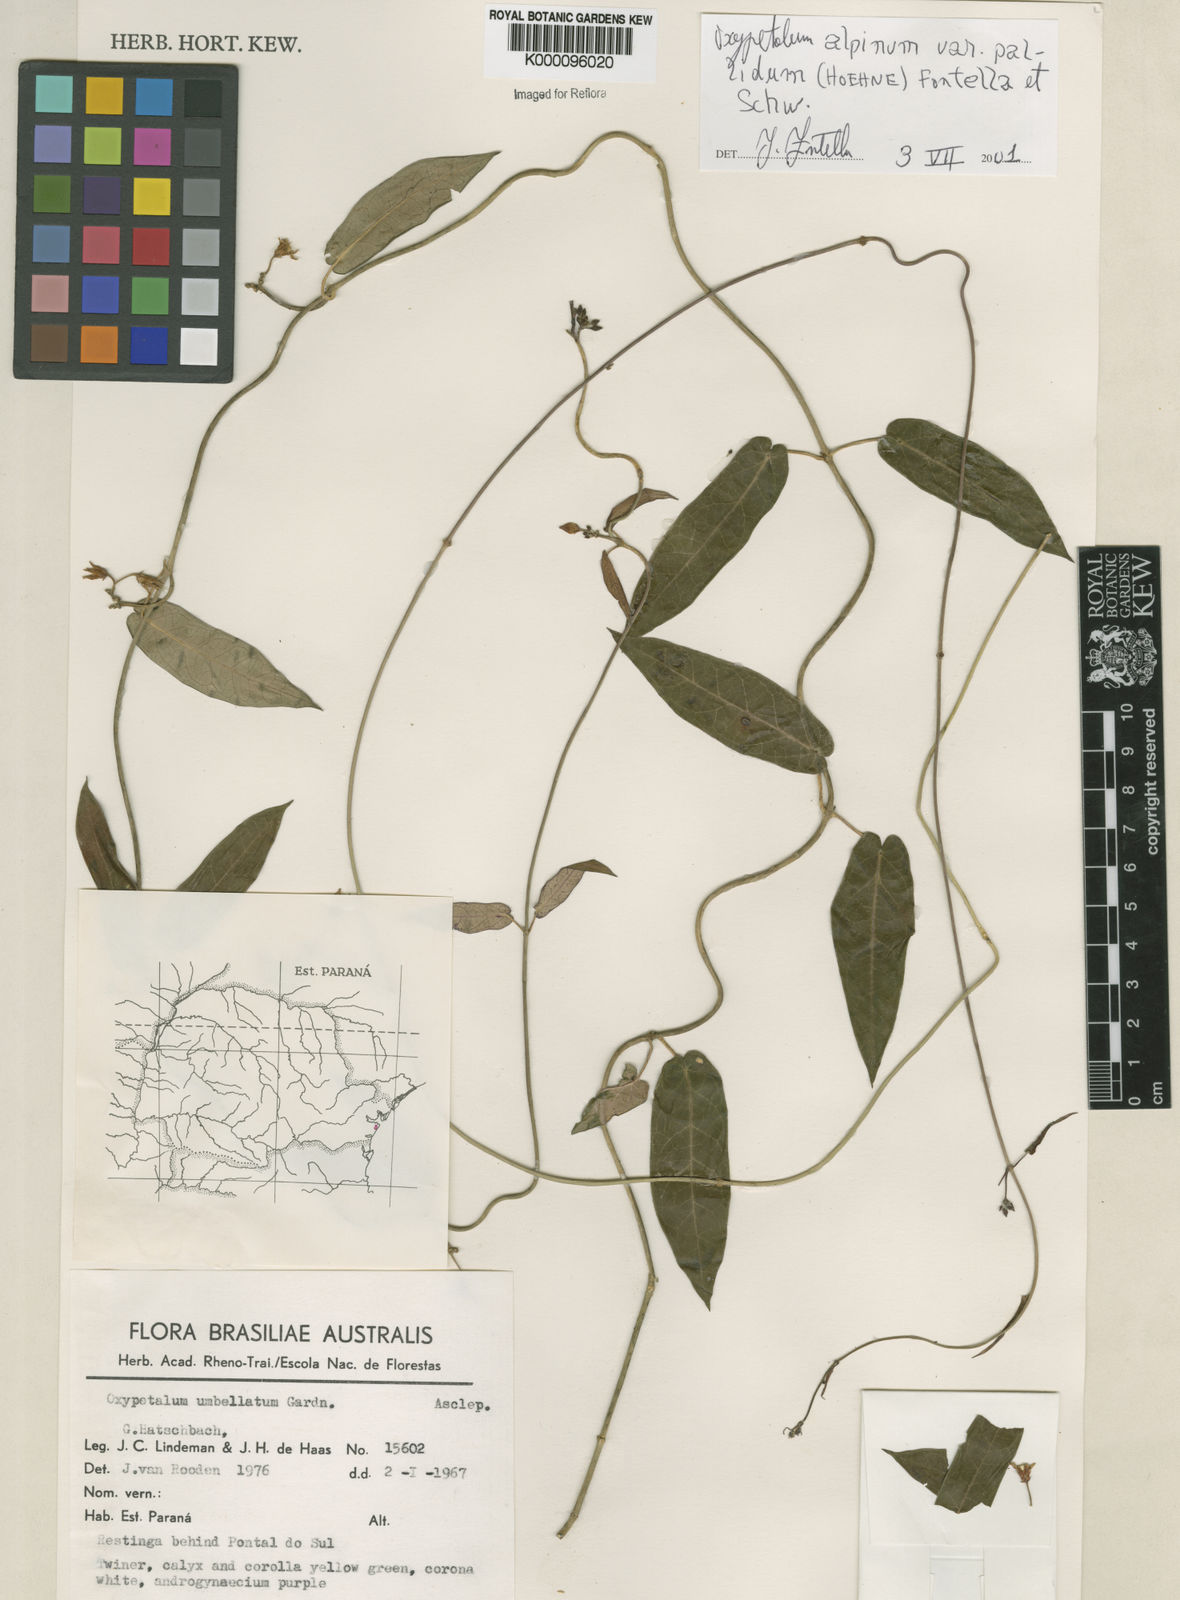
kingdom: Plantae
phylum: Tracheophyta
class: Magnoliopsida
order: Gentianales
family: Apocynaceae
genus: Oxypetalum
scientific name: Oxypetalum alpinum
